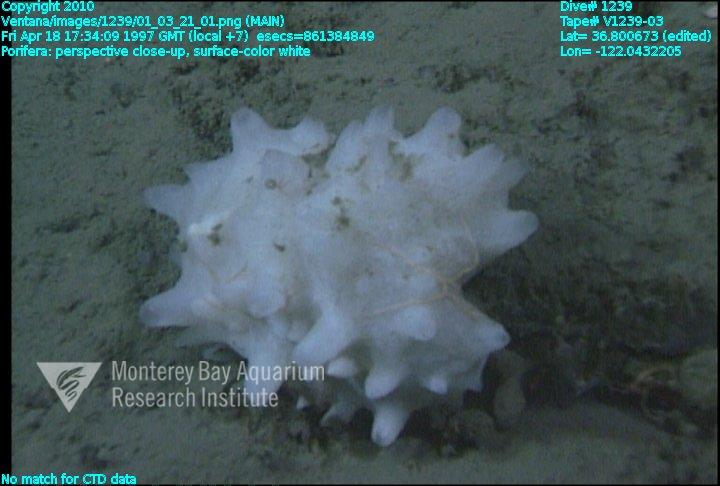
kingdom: Animalia
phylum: Porifera
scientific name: Porifera
